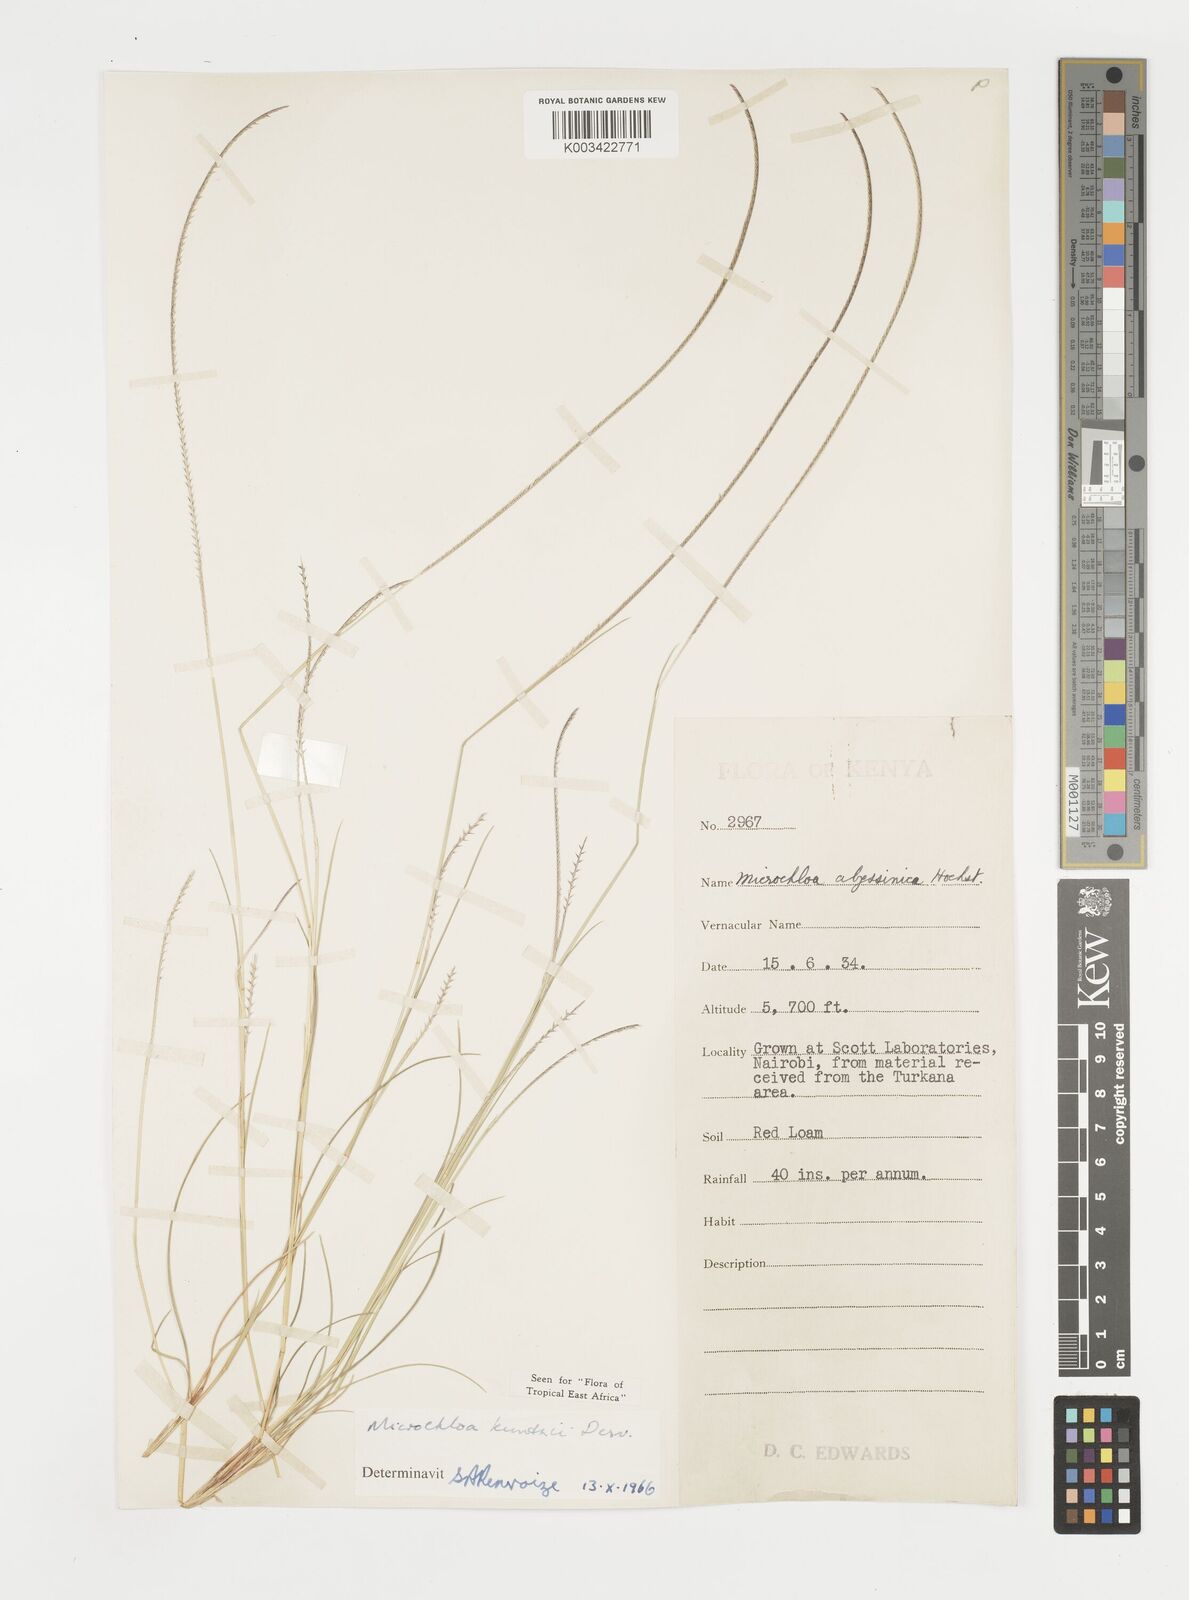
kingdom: Plantae
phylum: Tracheophyta
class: Liliopsida
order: Poales
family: Poaceae
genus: Microchloa
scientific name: Microchloa kunthii
